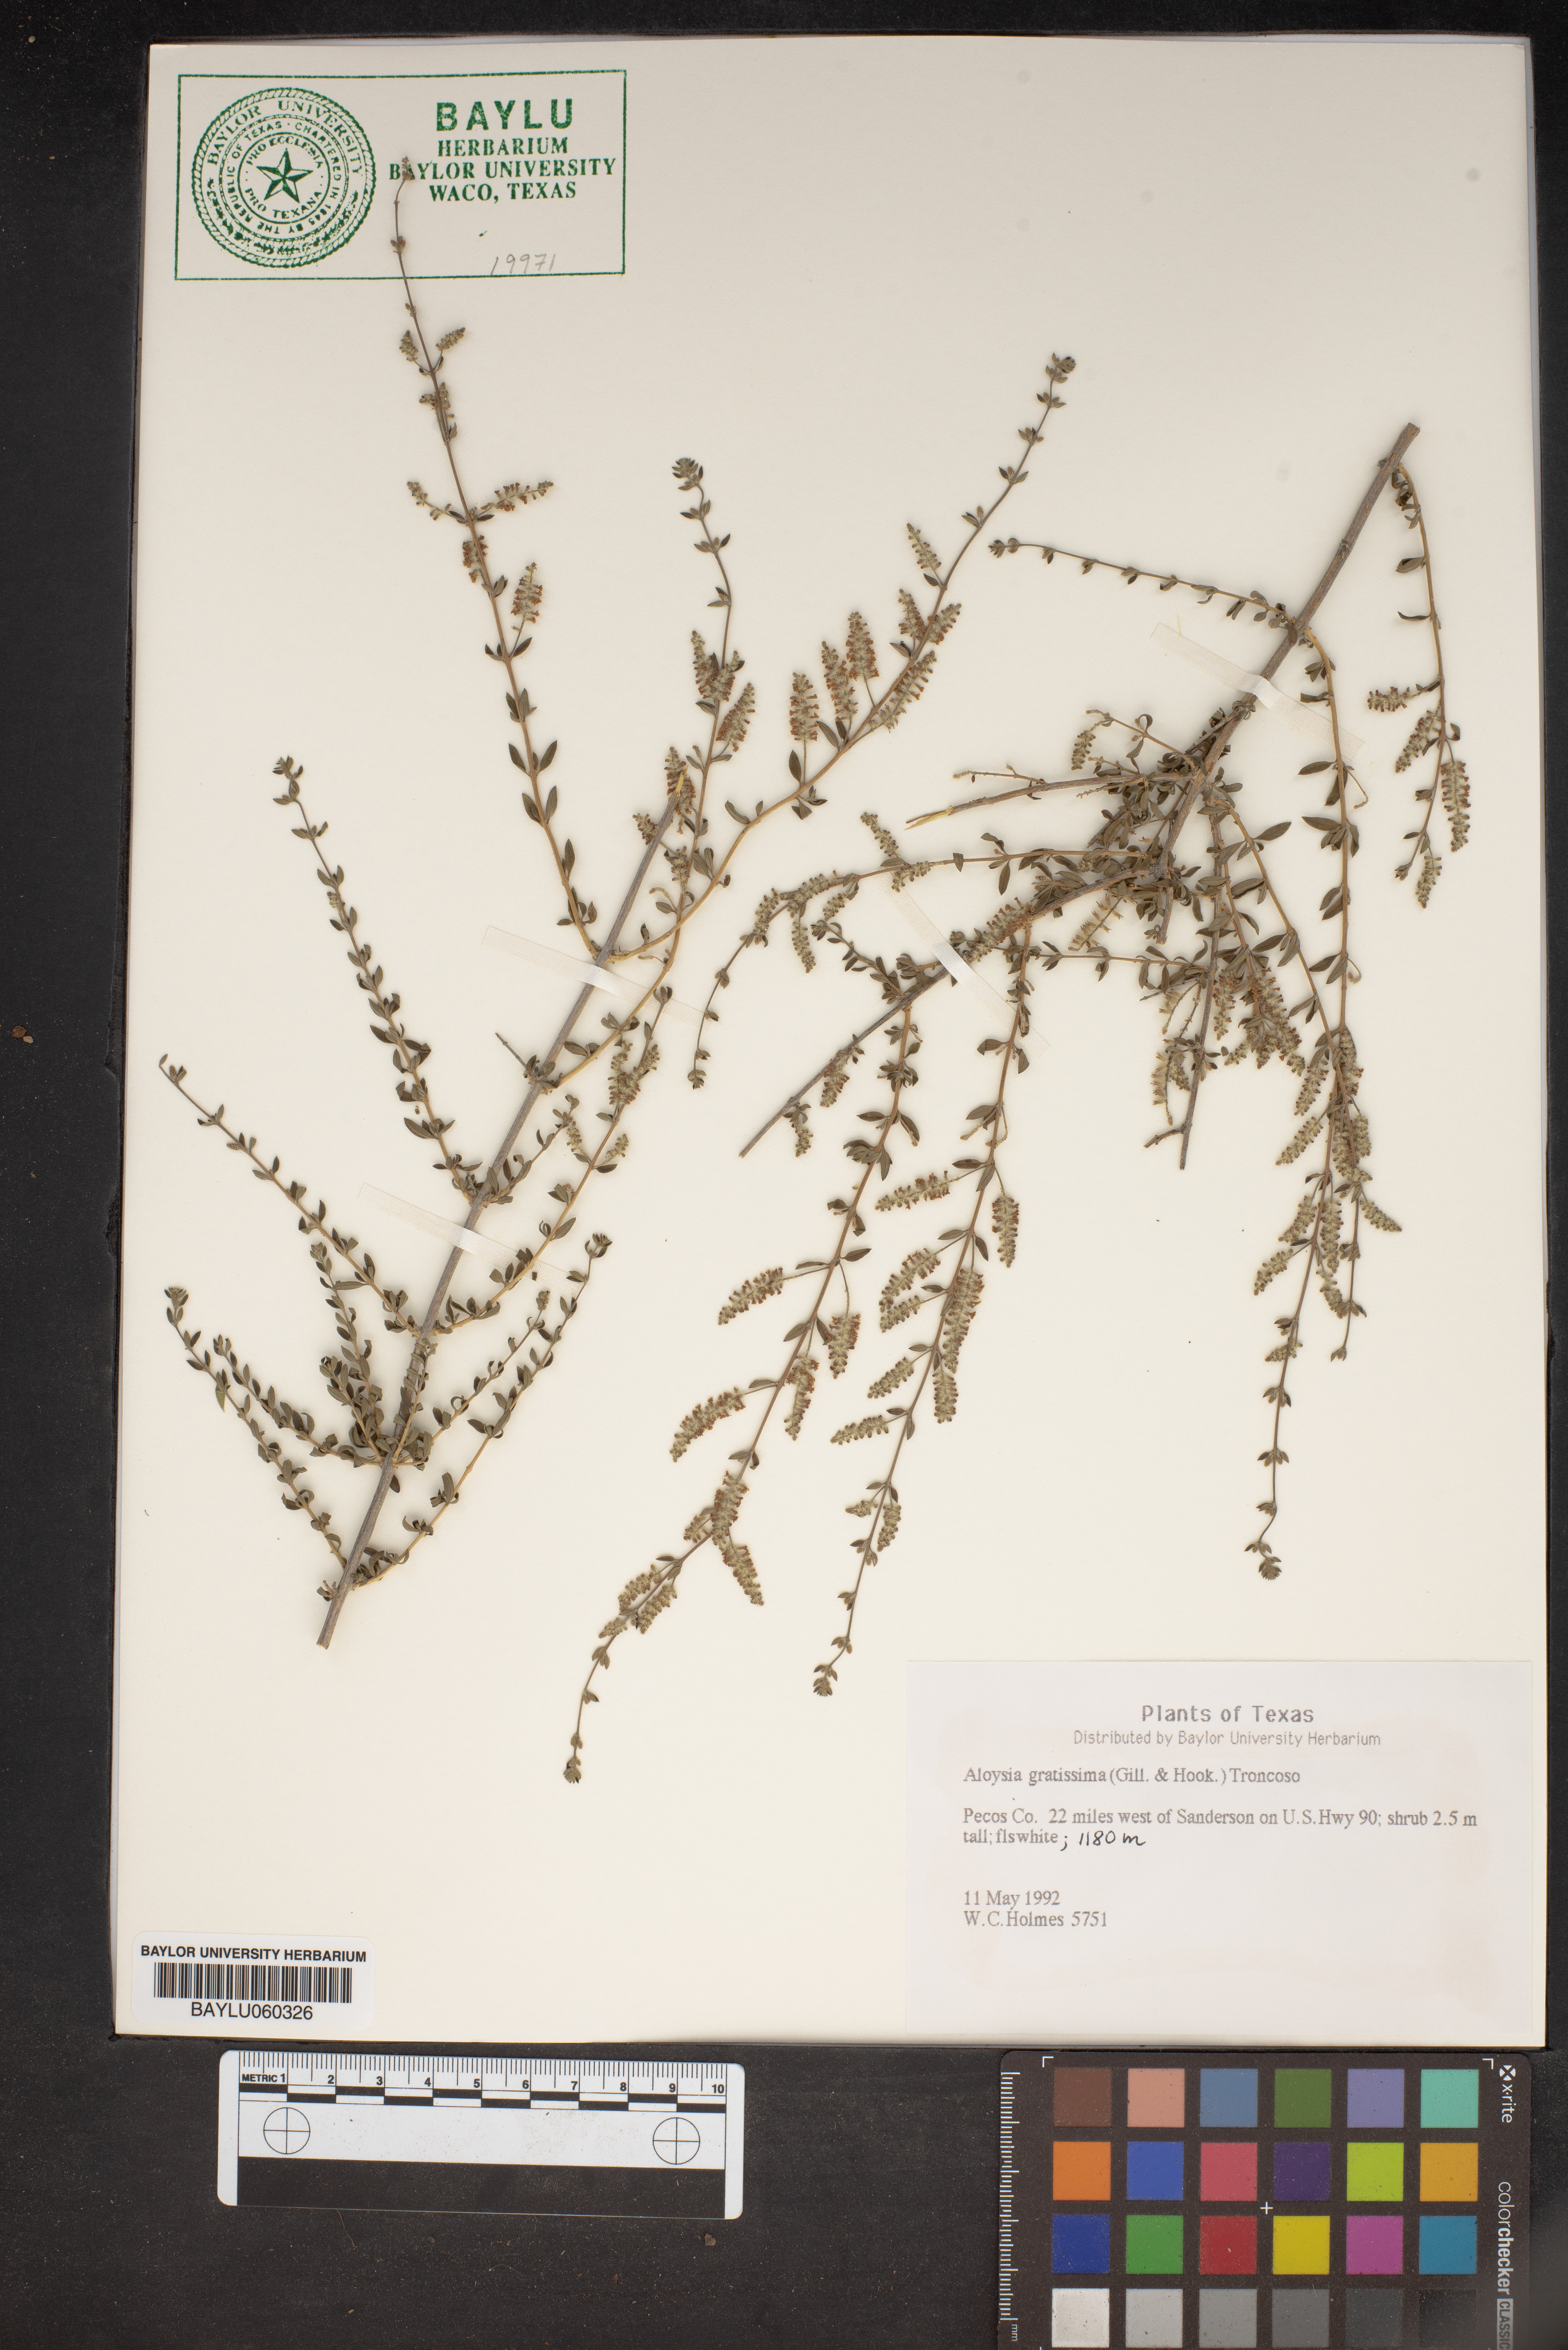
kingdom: Plantae
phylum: Tracheophyta
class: Magnoliopsida
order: Lamiales
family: Verbenaceae
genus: Aloysia
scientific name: Aloysia gratissima
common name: Common bee-brush
